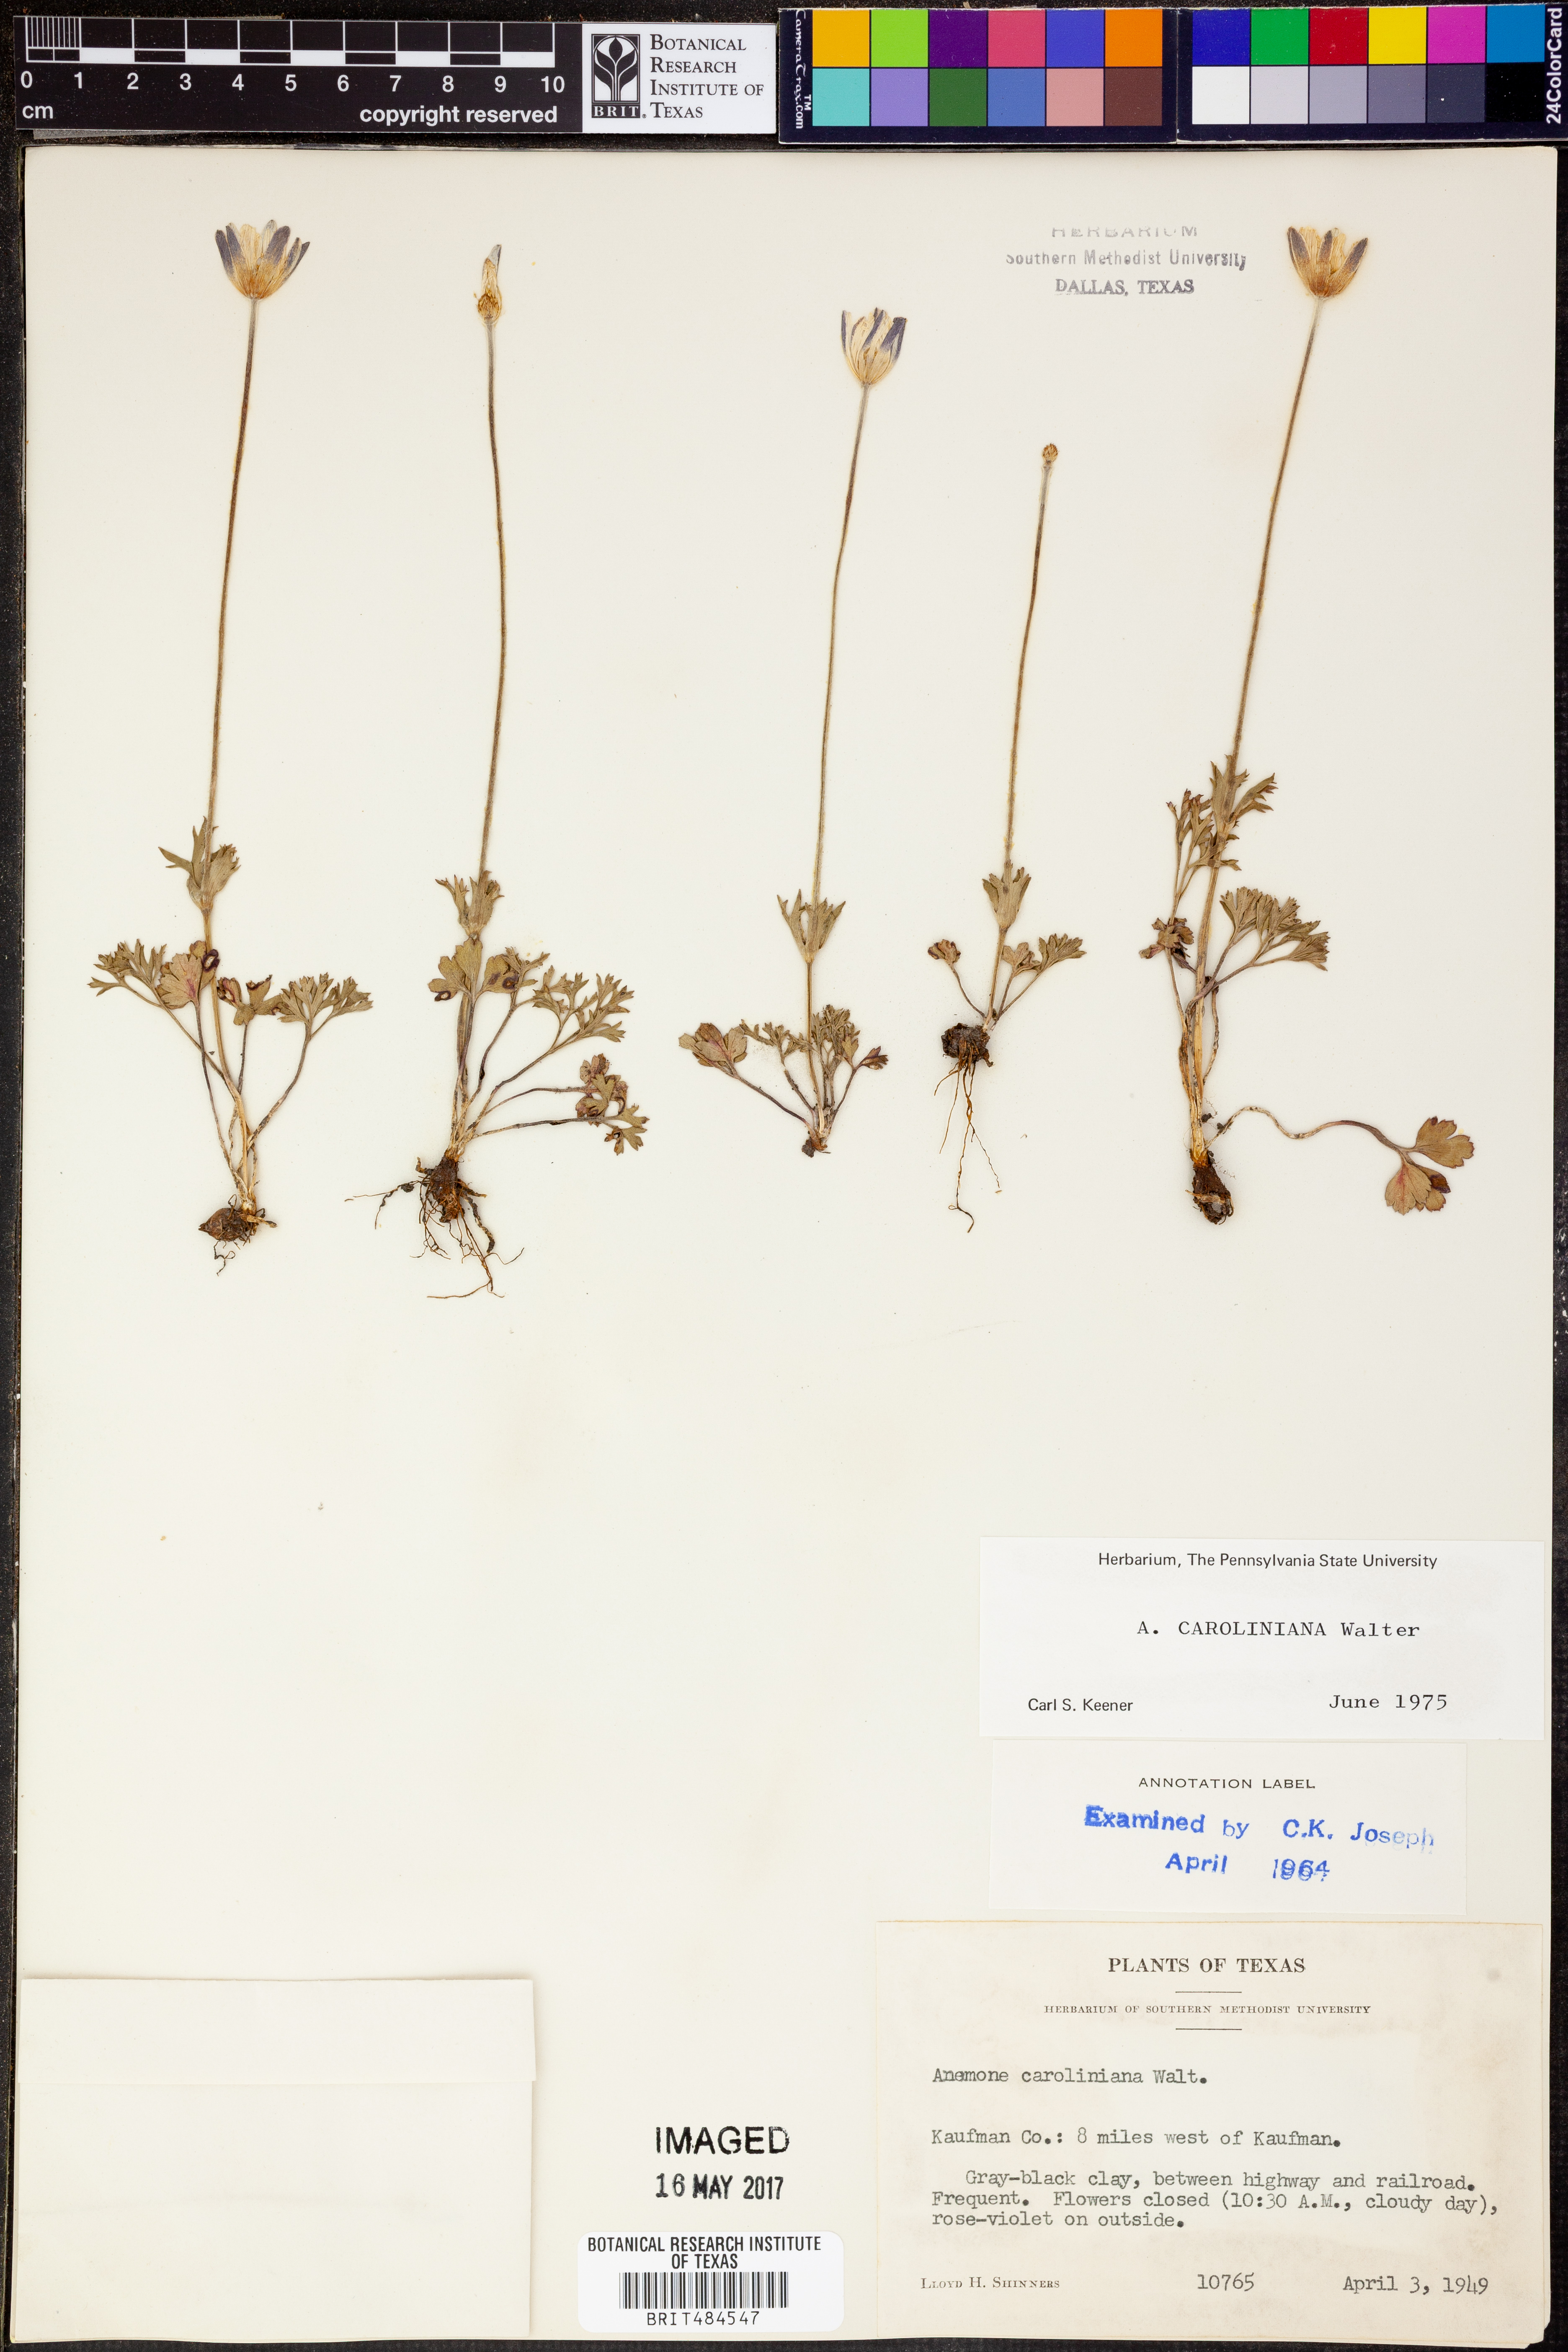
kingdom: Plantae
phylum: Tracheophyta
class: Magnoliopsida
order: Ranunculales
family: Ranunculaceae
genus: Anemone
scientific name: Anemone caroliniana
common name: Carolina anemone
